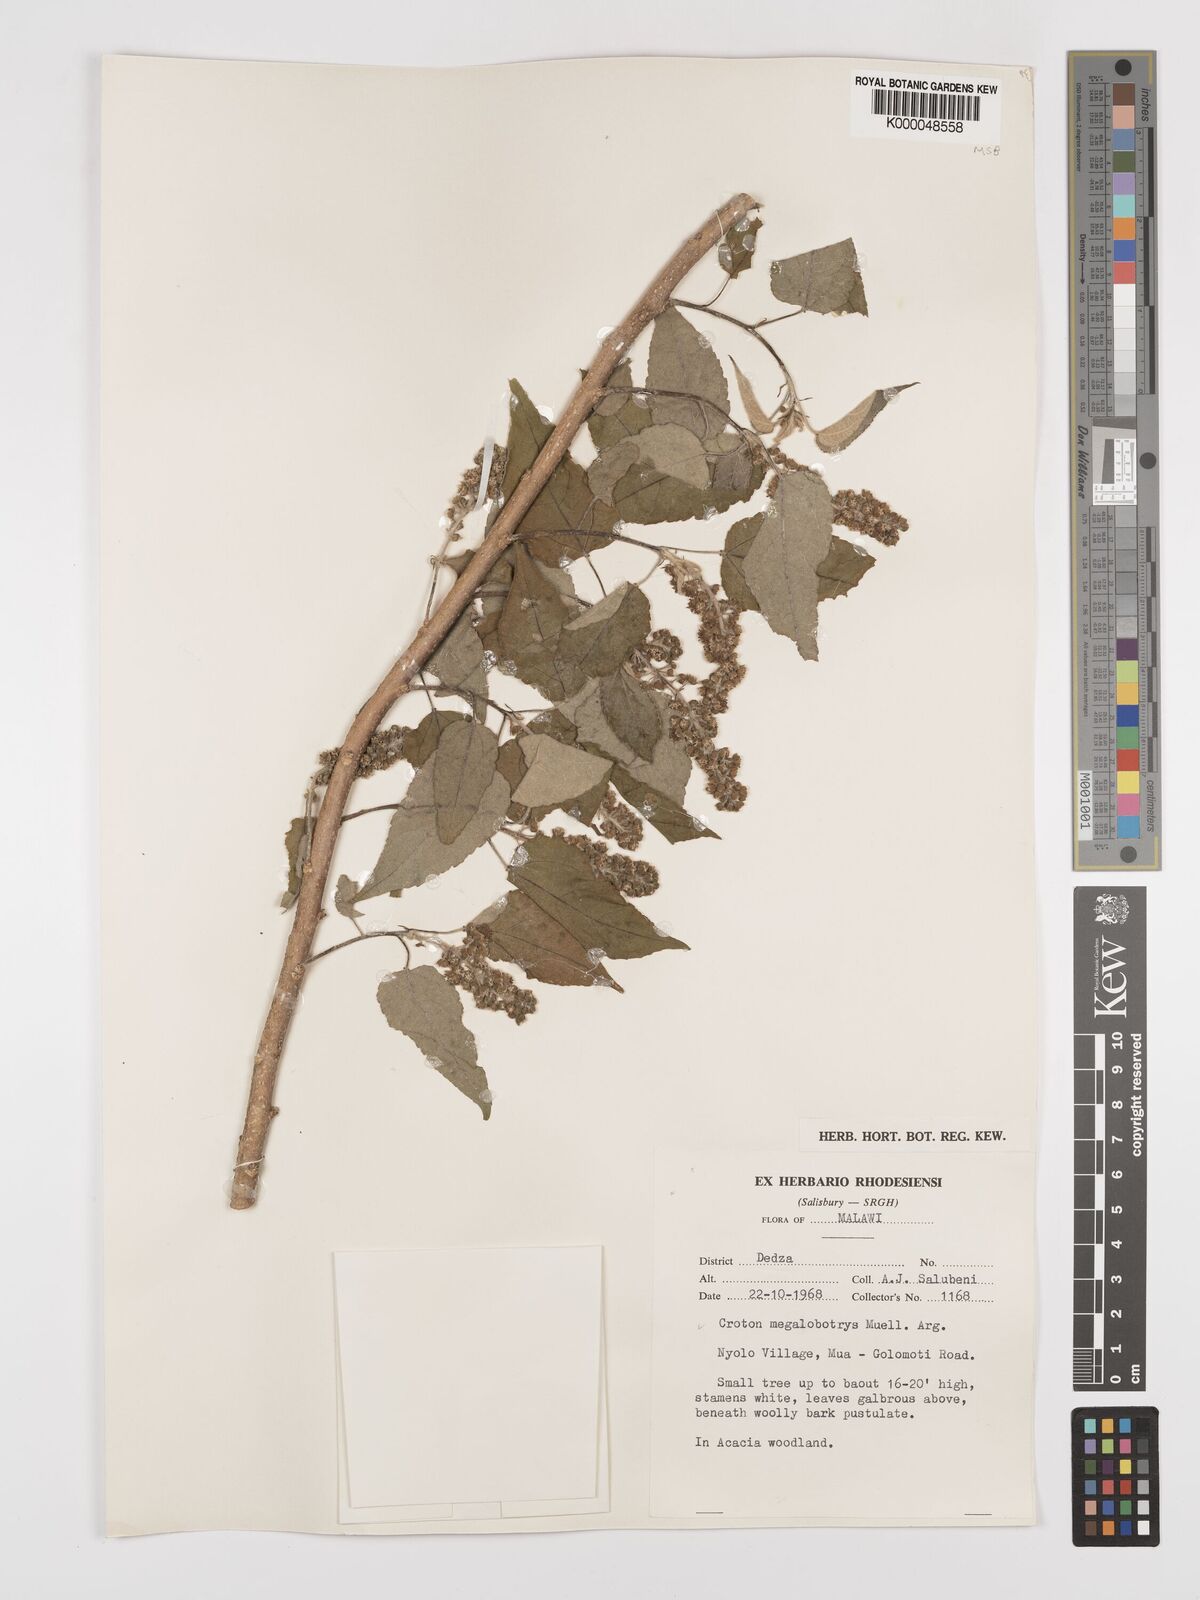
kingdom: Plantae
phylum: Tracheophyta
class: Magnoliopsida
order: Malpighiales
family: Euphorbiaceae
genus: Croton
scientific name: Croton
